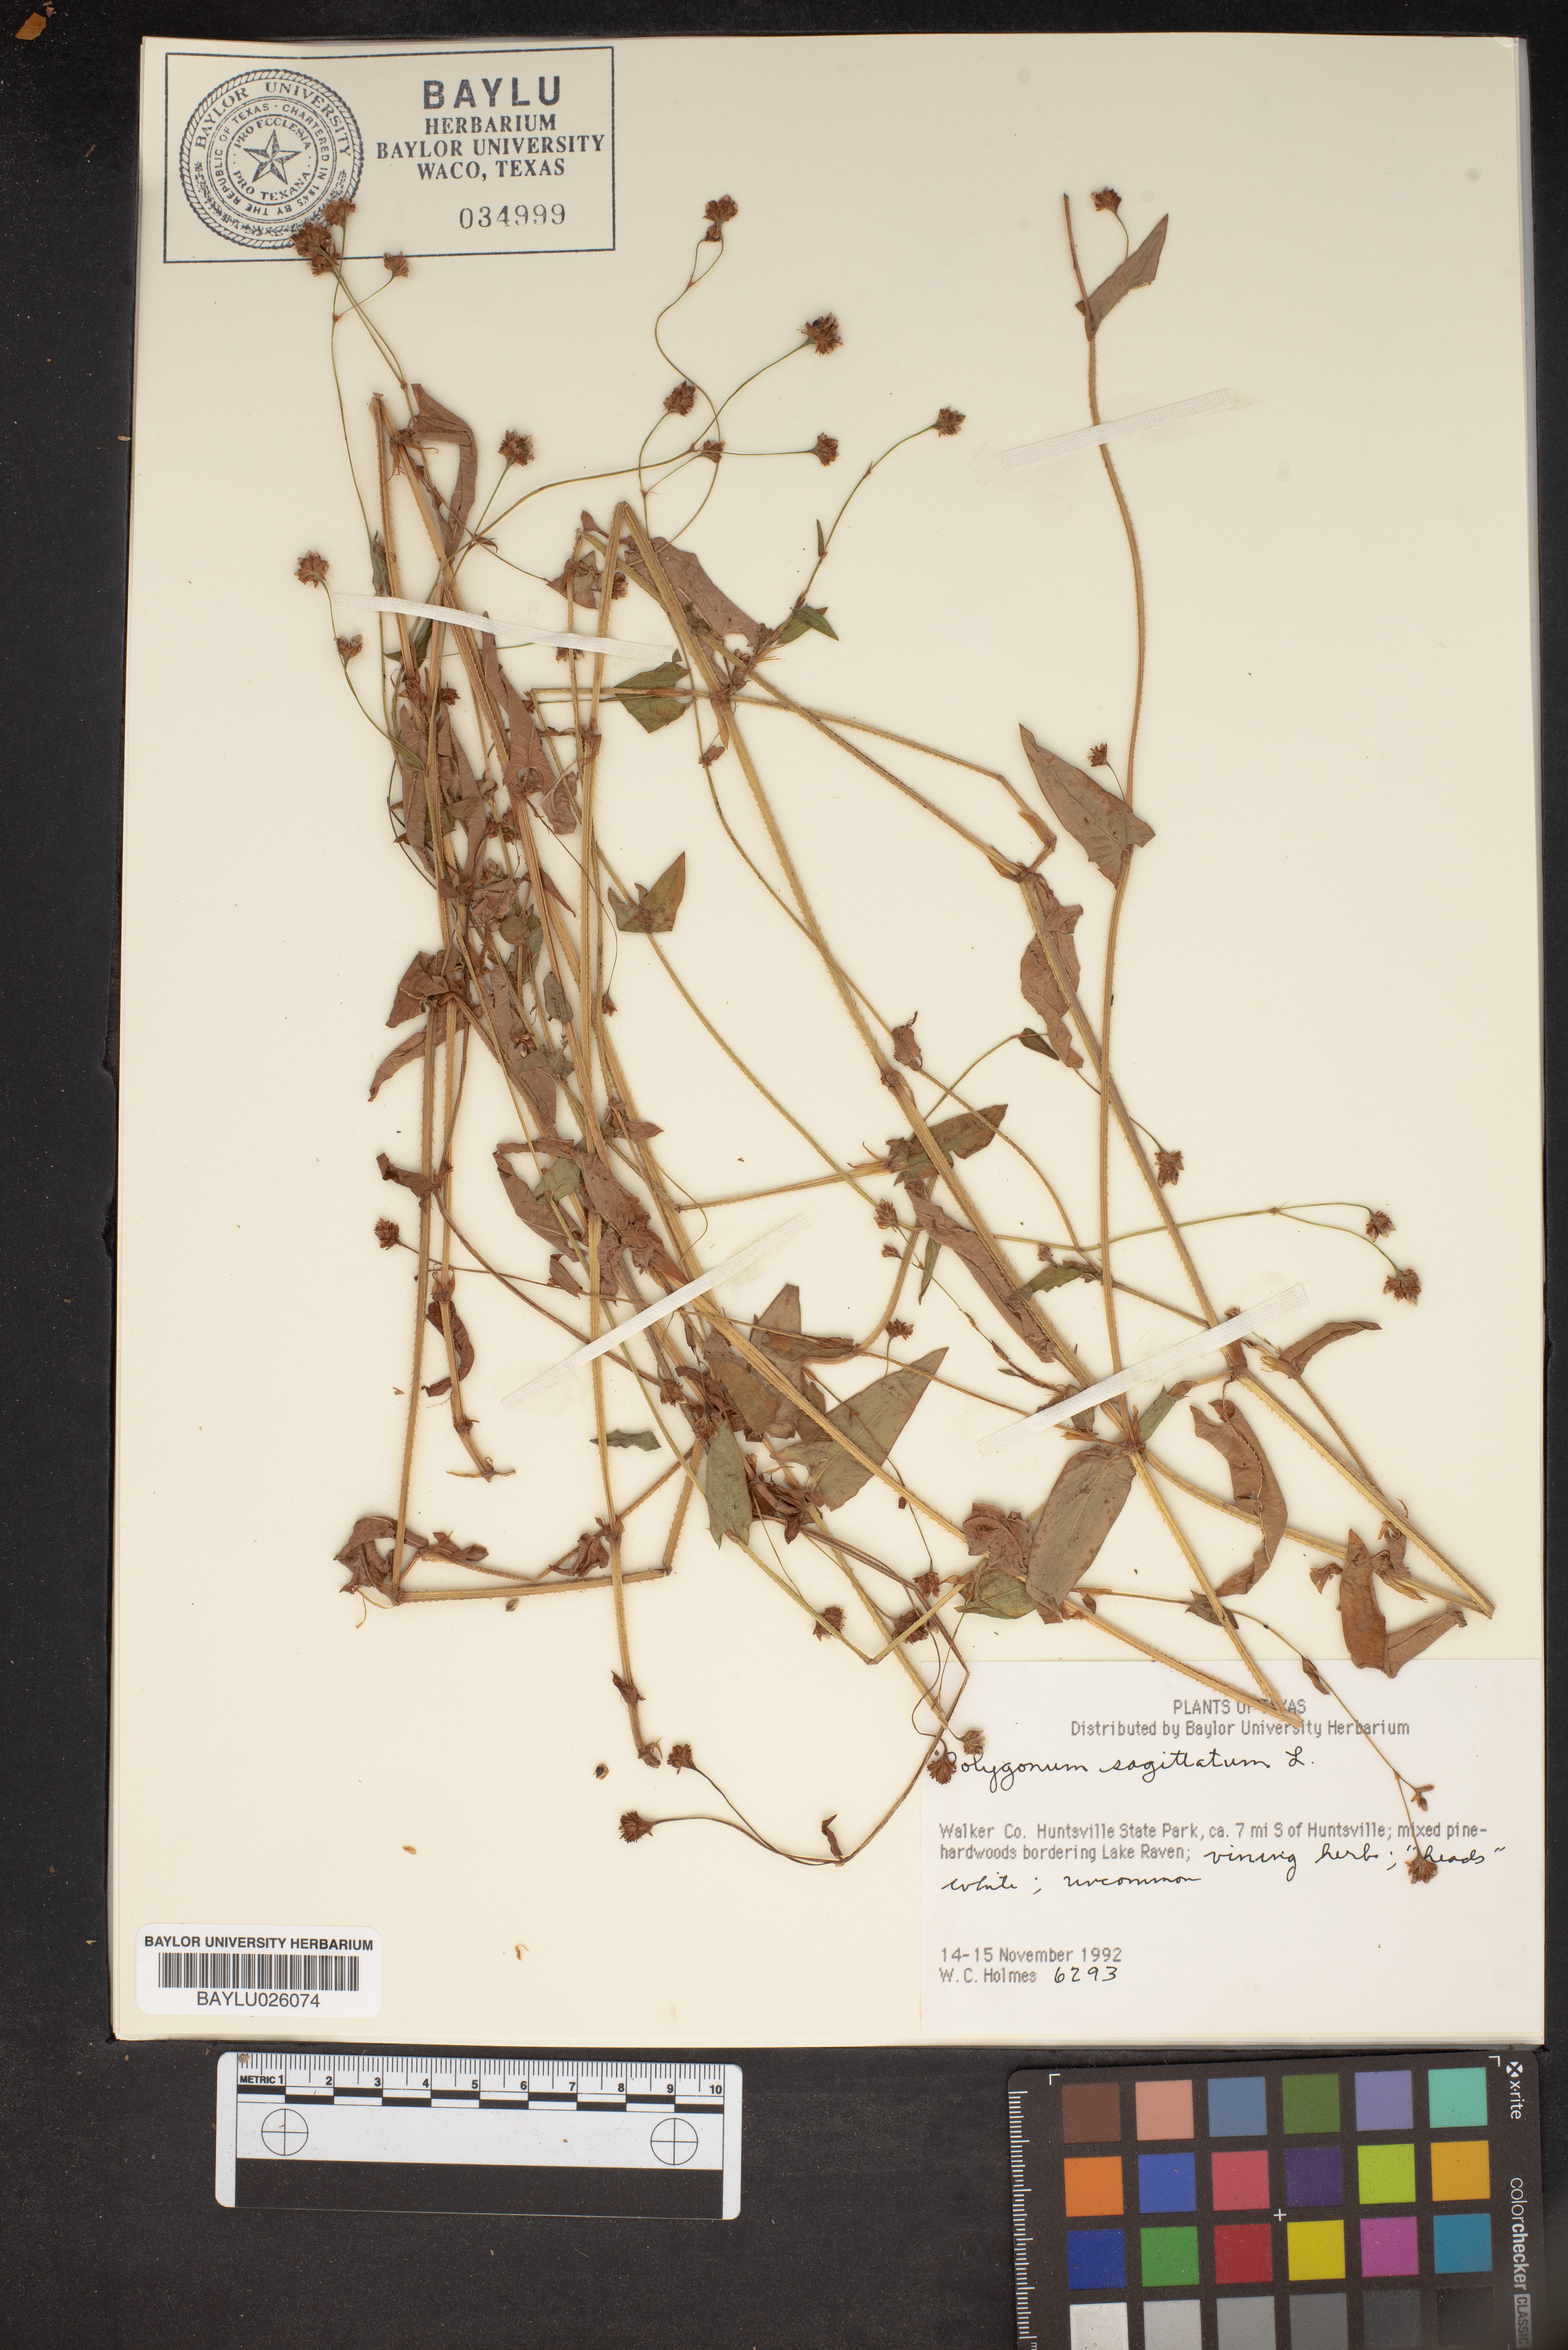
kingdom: Plantae
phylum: Tracheophyta
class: Magnoliopsida
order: Caryophyllales
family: Polygonaceae
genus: Persicaria
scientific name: Persicaria sagittata
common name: American tearthumb
